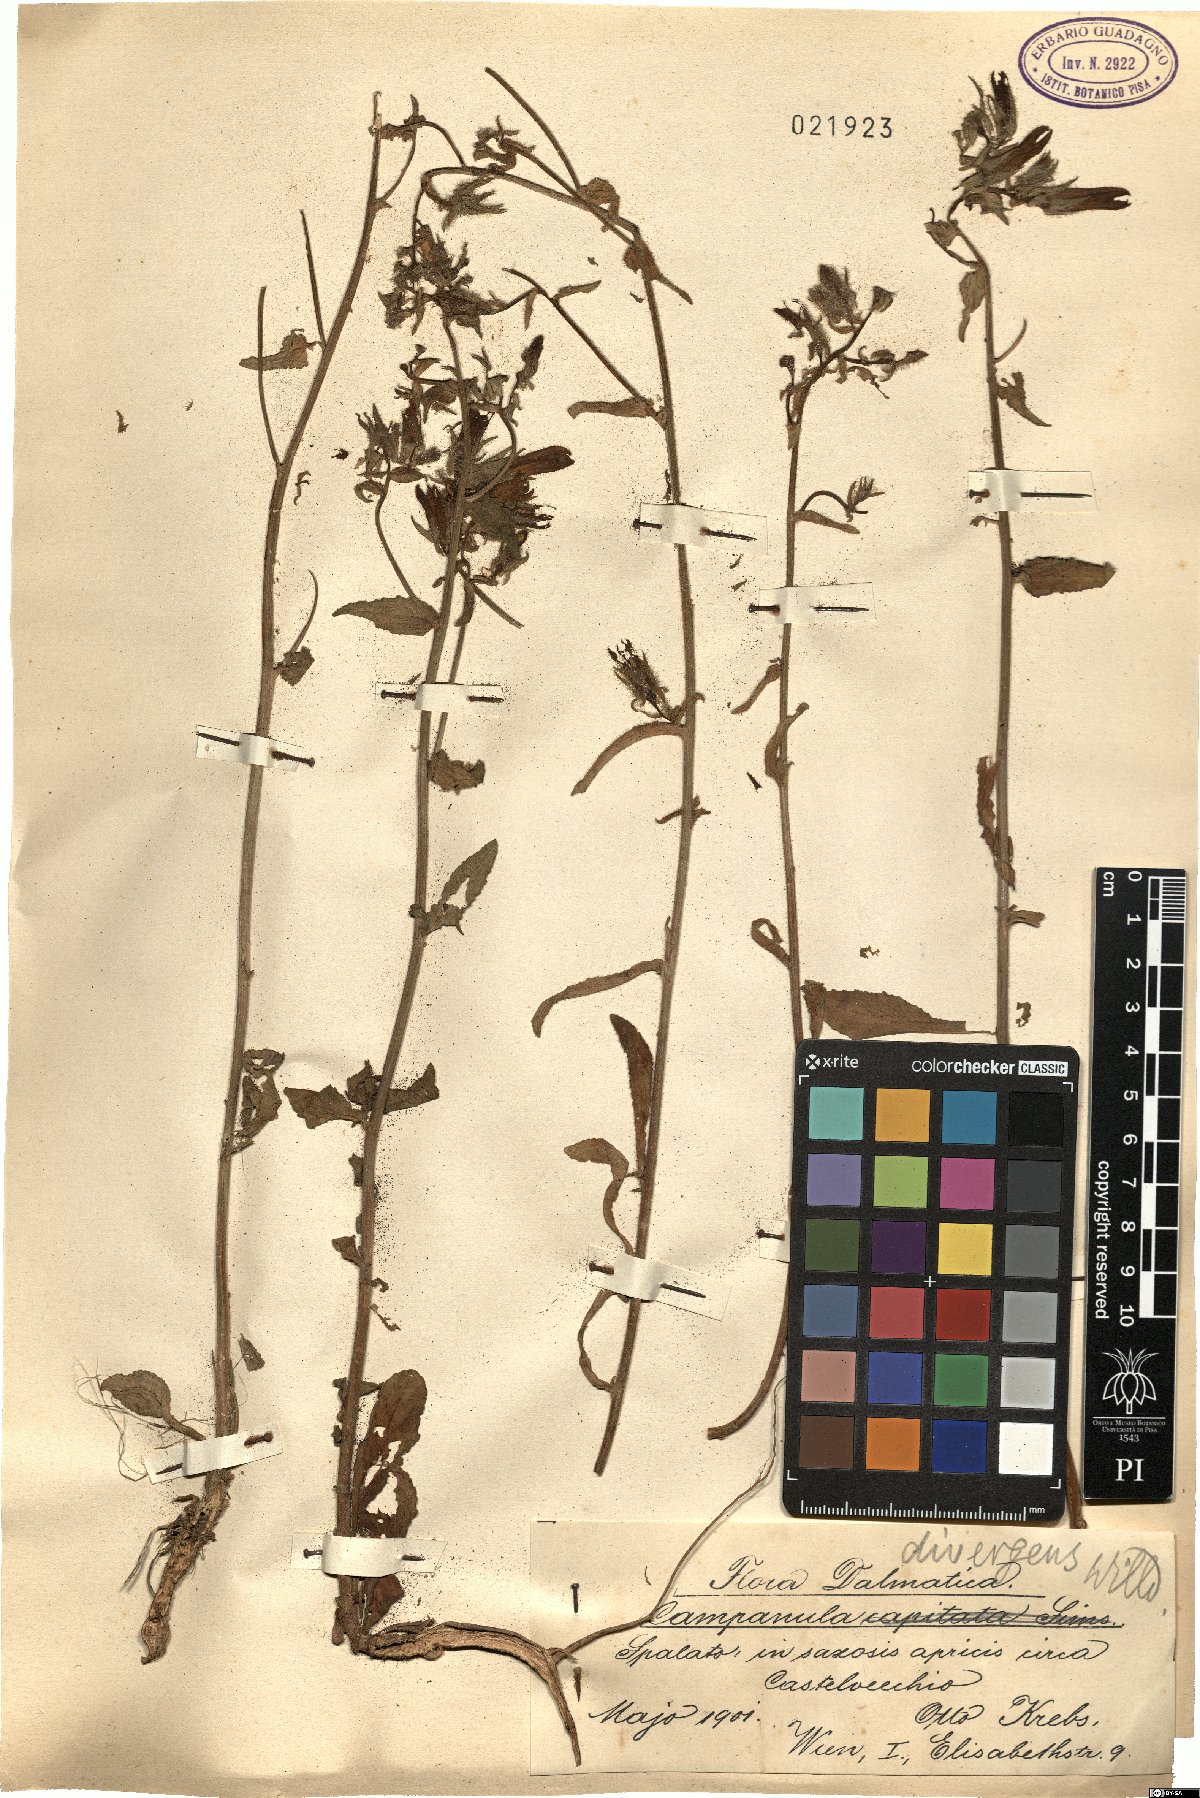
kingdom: Plantae
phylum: Tracheophyta
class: Magnoliopsida
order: Asterales
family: Campanulaceae
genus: Campanula
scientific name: Campanula sibirica
